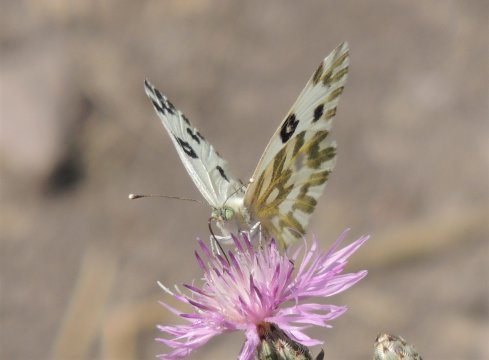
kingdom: Animalia
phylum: Arthropoda
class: Insecta
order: Lepidoptera
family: Pieridae
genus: Pontia
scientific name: Pontia beckerii
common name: Becker's White
